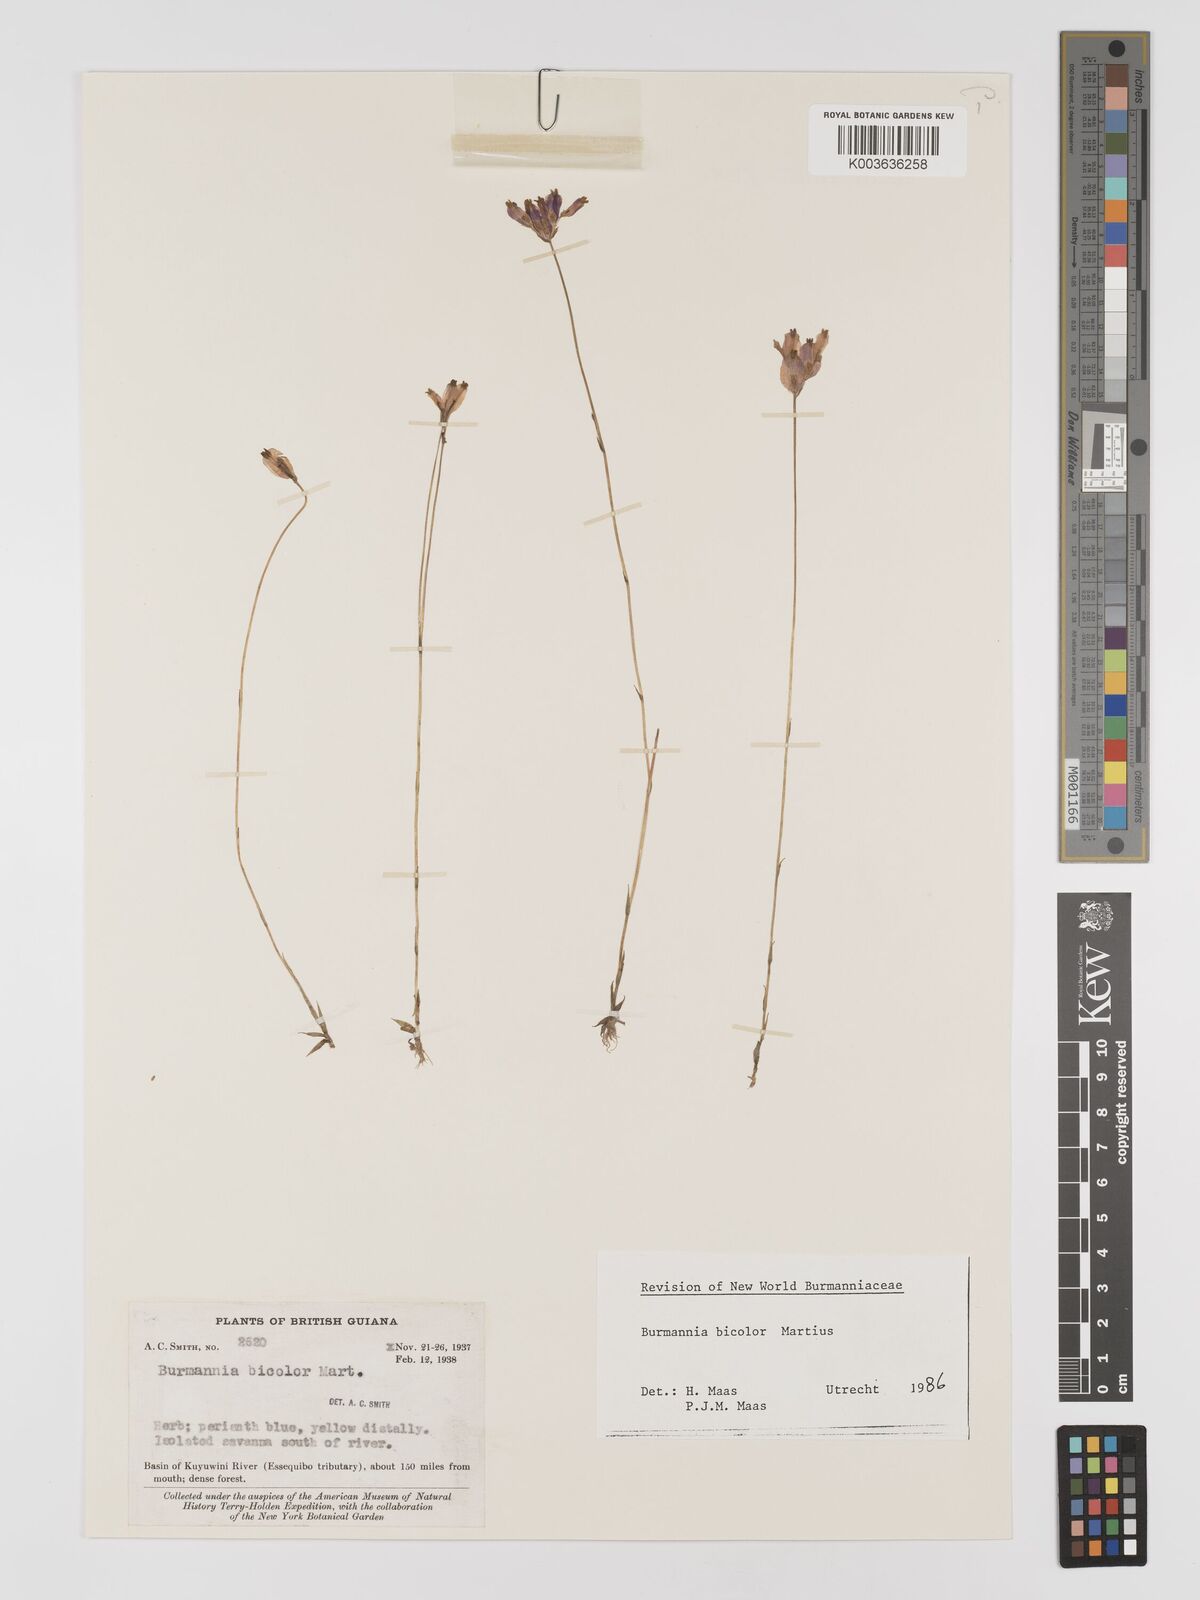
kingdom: Plantae
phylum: Tracheophyta
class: Liliopsida
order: Dioscoreales
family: Burmanniaceae
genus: Burmannia
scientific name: Burmannia bicolor
